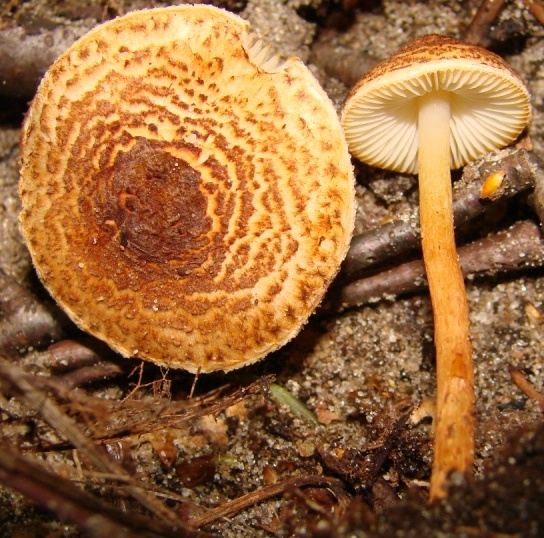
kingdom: Fungi
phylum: Basidiomycota
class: Agaricomycetes
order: Agaricales
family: Agaricaceae
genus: Lepiota
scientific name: Lepiota castanea
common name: kastaniebrun parasolhat
